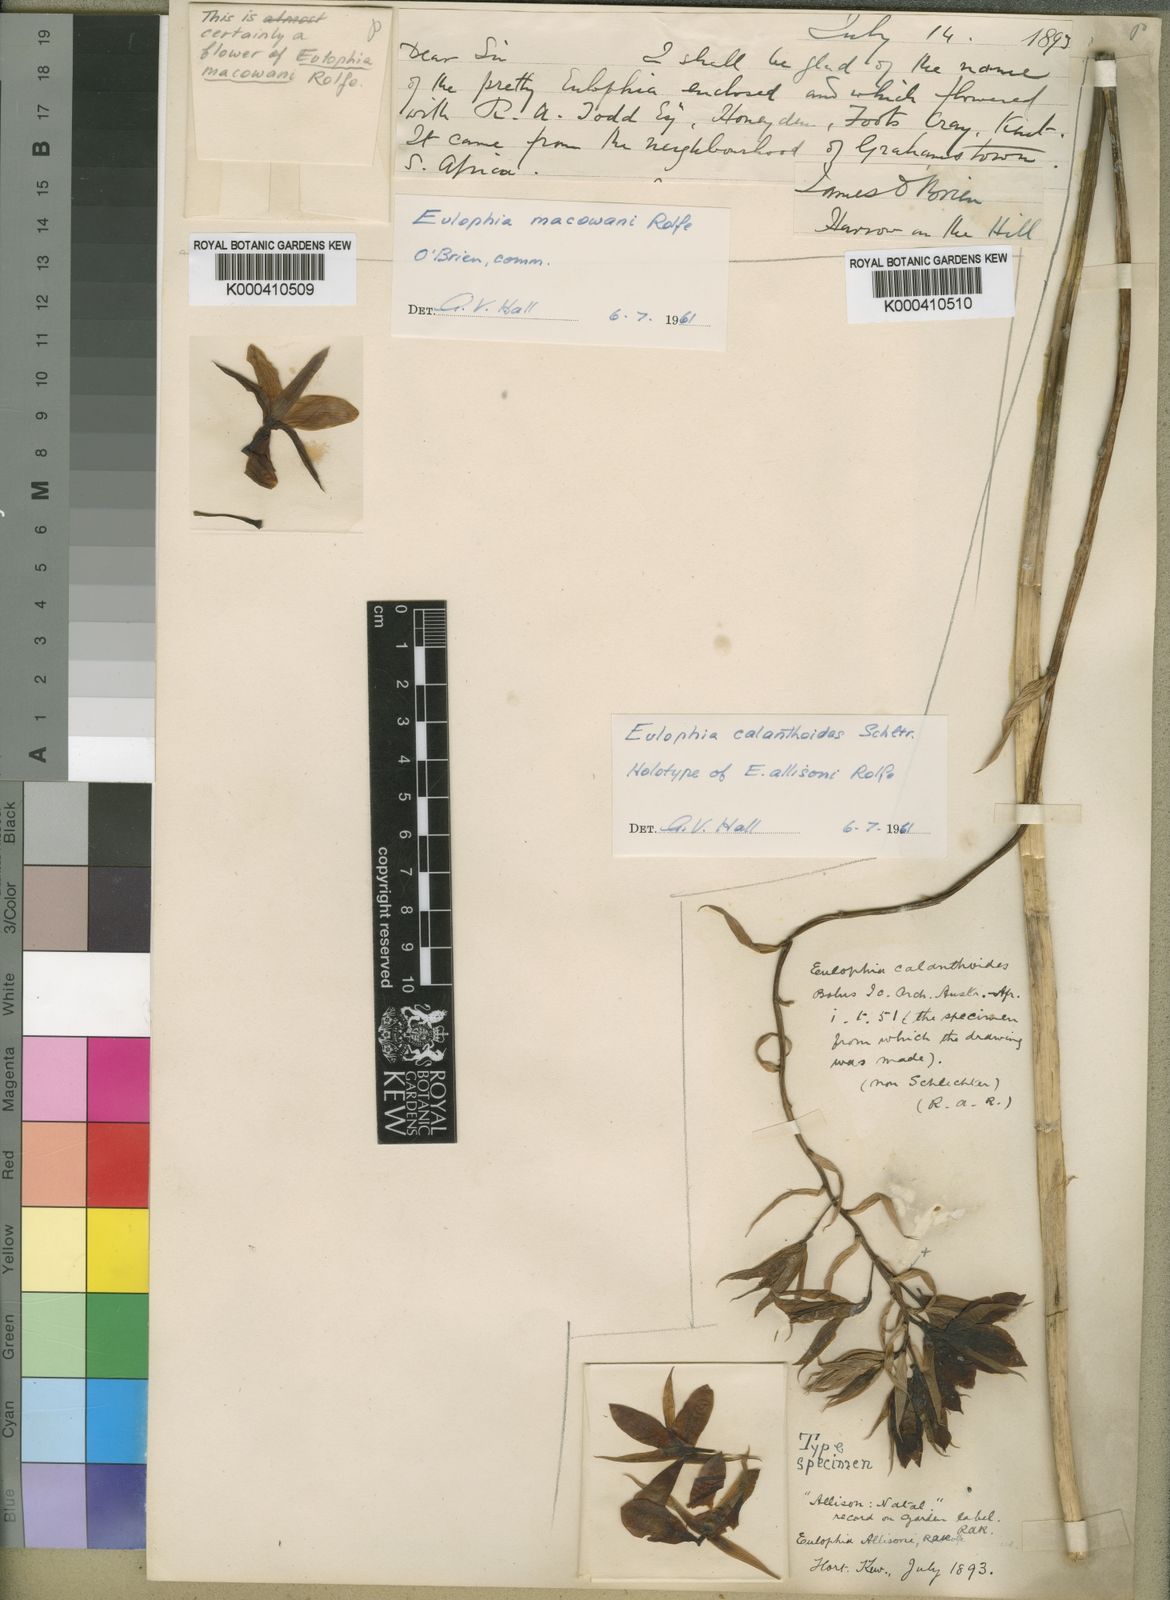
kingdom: Plantae
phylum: Tracheophyta
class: Liliopsida
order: Asparagales
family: Orchidaceae
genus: Eulophia
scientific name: Eulophia calanthoides
